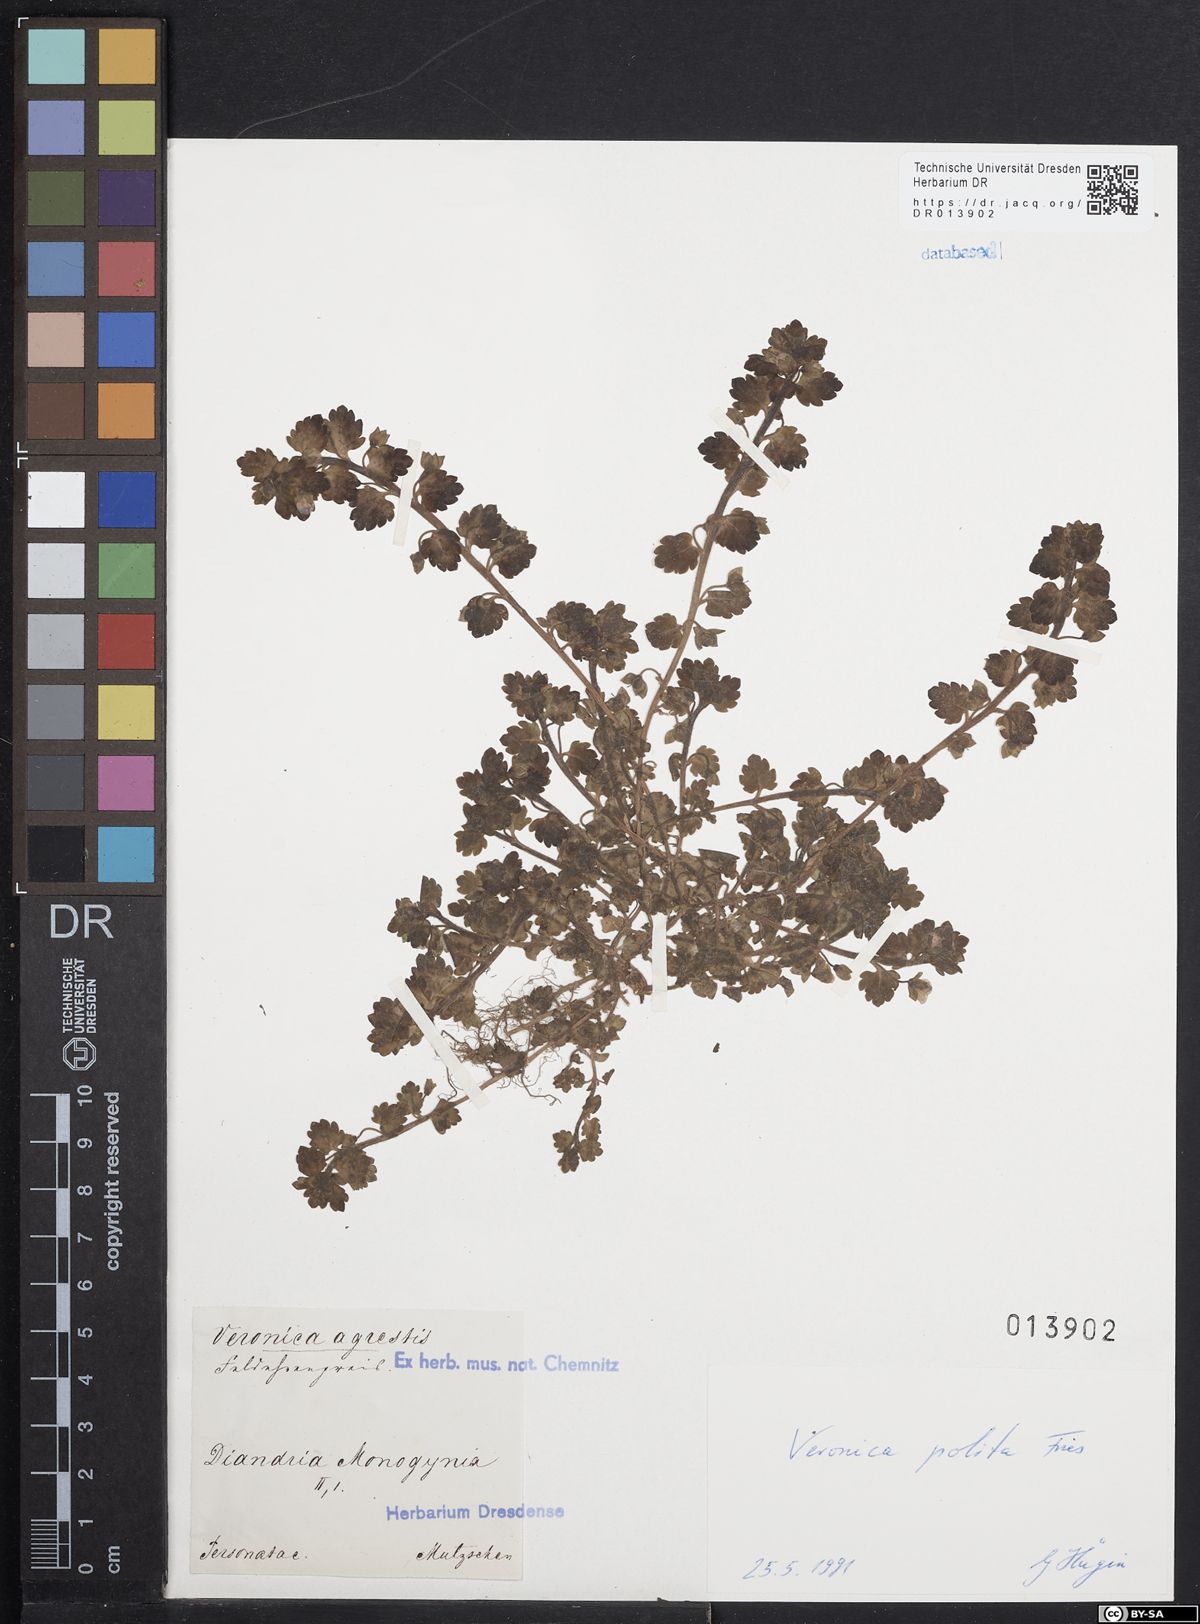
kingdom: Plantae
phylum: Tracheophyta
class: Magnoliopsida
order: Lamiales
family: Plantaginaceae
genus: Veronica
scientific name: Veronica polita
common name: Grey field-speedwell
